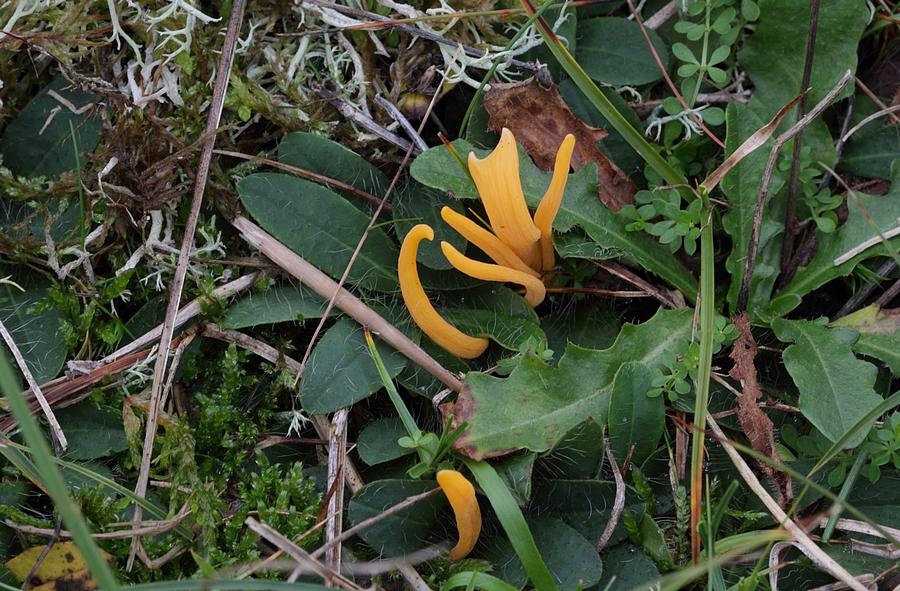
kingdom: Fungi
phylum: Basidiomycota
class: Agaricomycetes
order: Agaricales
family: Clavariaceae
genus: Clavulinopsis
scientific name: Clavulinopsis luteoalba
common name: abrikos-køllesvamp
